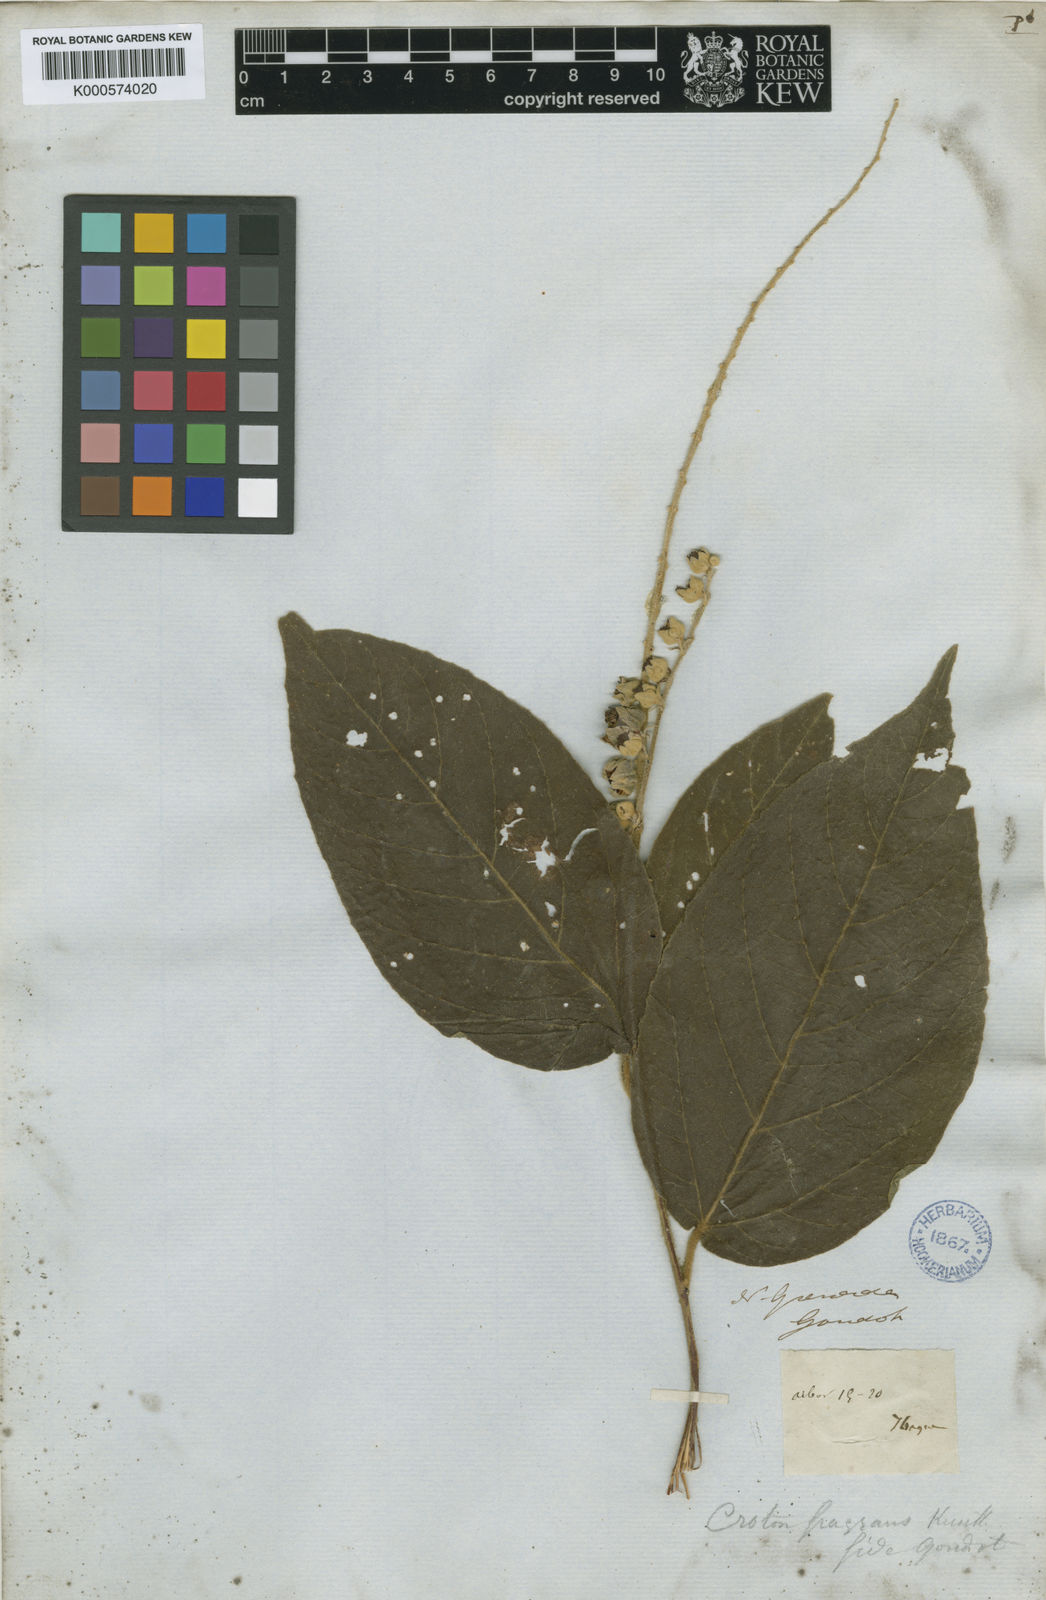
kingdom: Plantae
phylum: Tracheophyta
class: Magnoliopsida
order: Malpighiales
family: Euphorbiaceae
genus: Croton
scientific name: Croton fragrans
